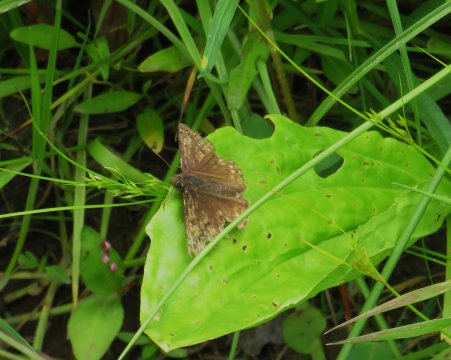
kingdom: Animalia
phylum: Arthropoda
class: Insecta
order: Lepidoptera
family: Hesperiidae
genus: Erynnis
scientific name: Erynnis
